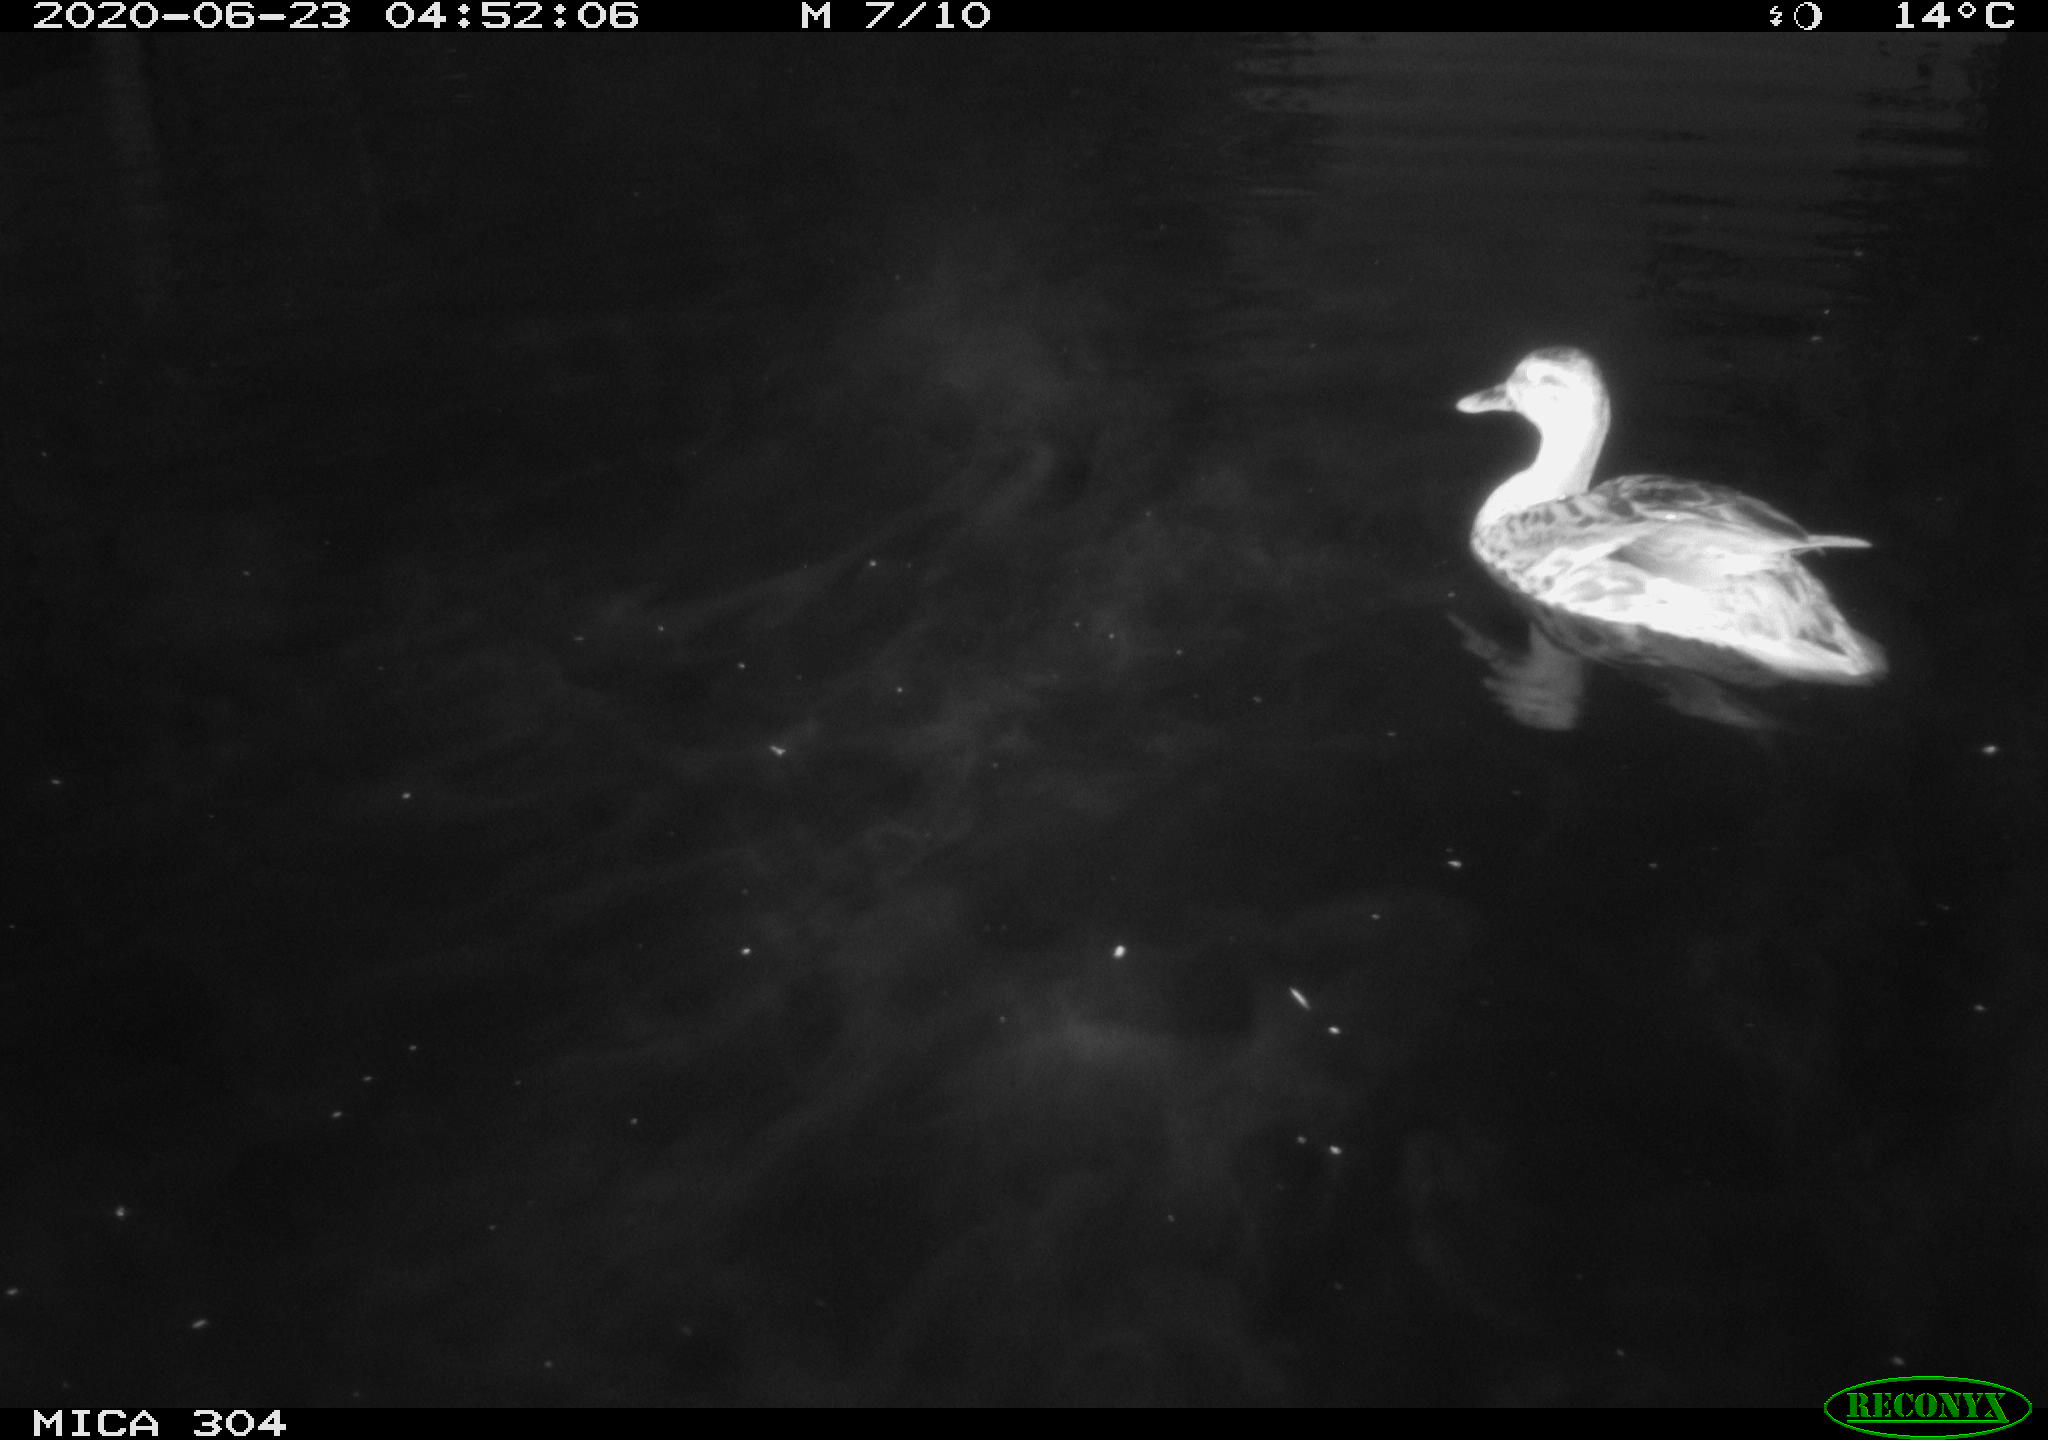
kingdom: Animalia
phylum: Chordata
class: Aves
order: Anseriformes
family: Anatidae
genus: Anas
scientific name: Anas platyrhynchos
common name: Mallard
